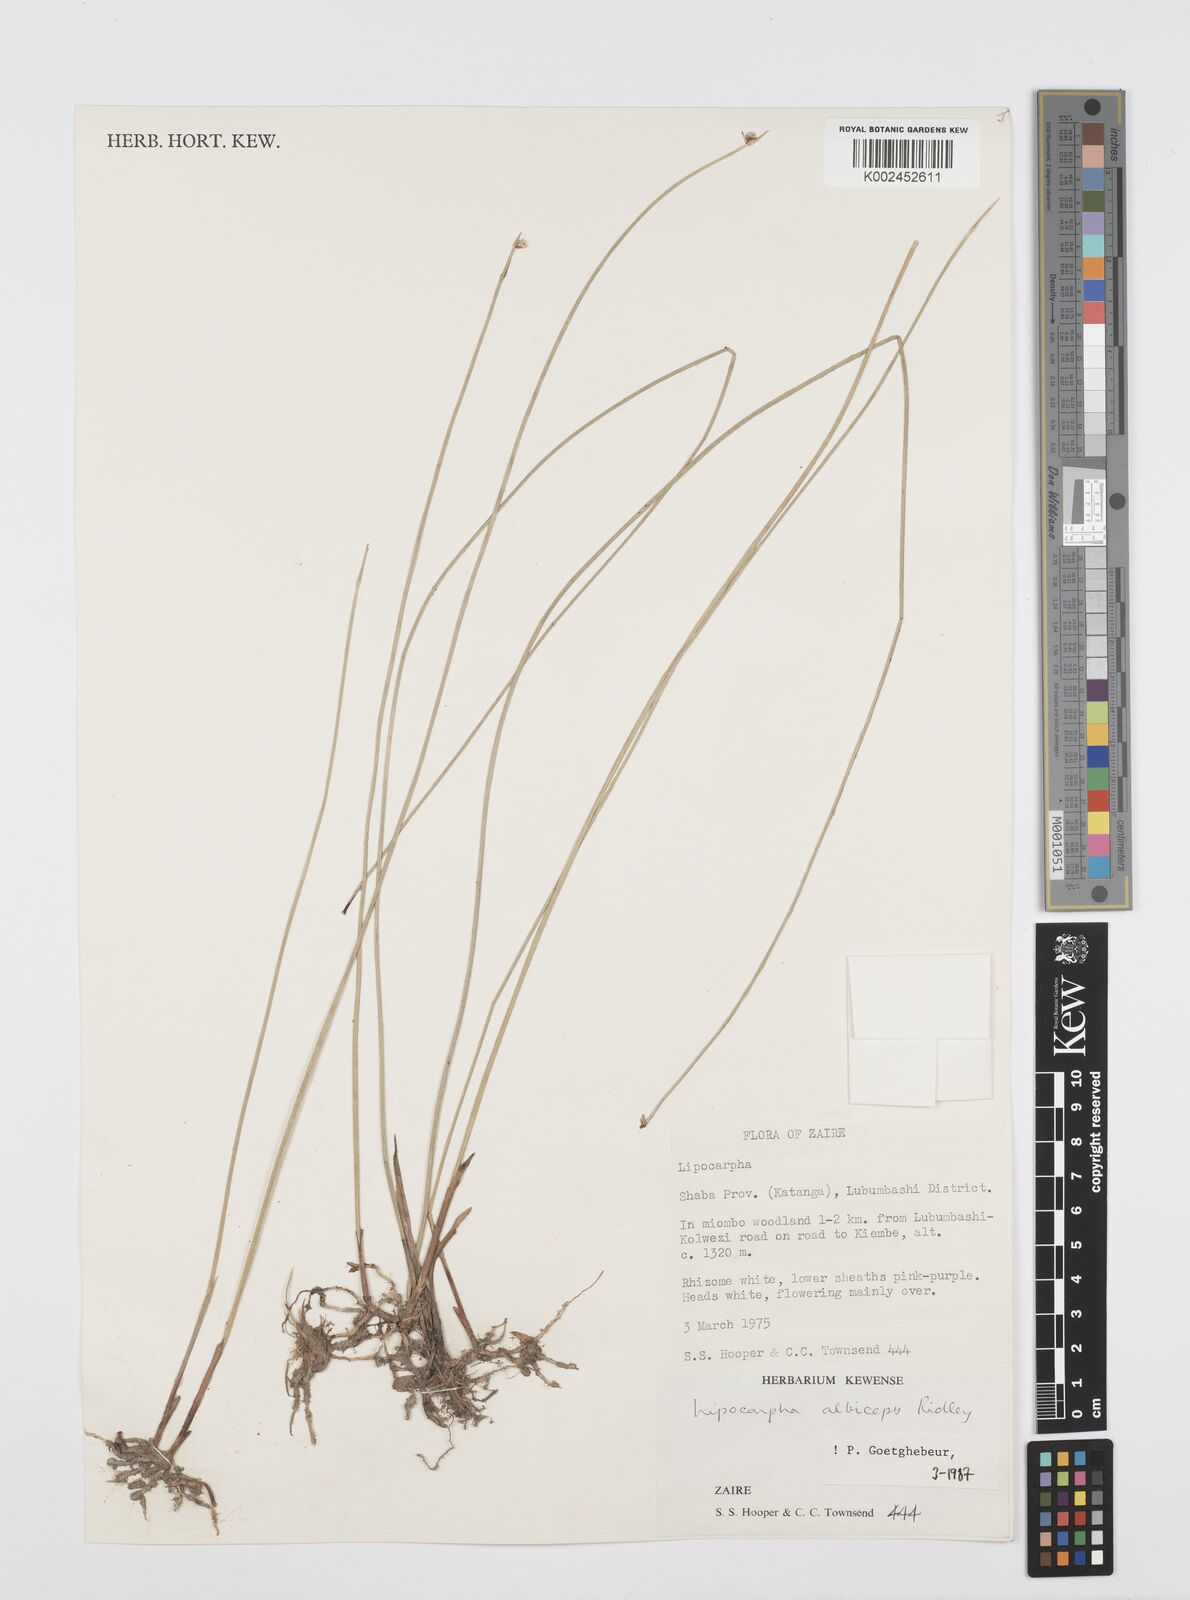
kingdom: Plantae
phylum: Tracheophyta
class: Liliopsida
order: Poales
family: Cyperaceae
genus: Cyperus
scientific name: Cyperus albiceps
